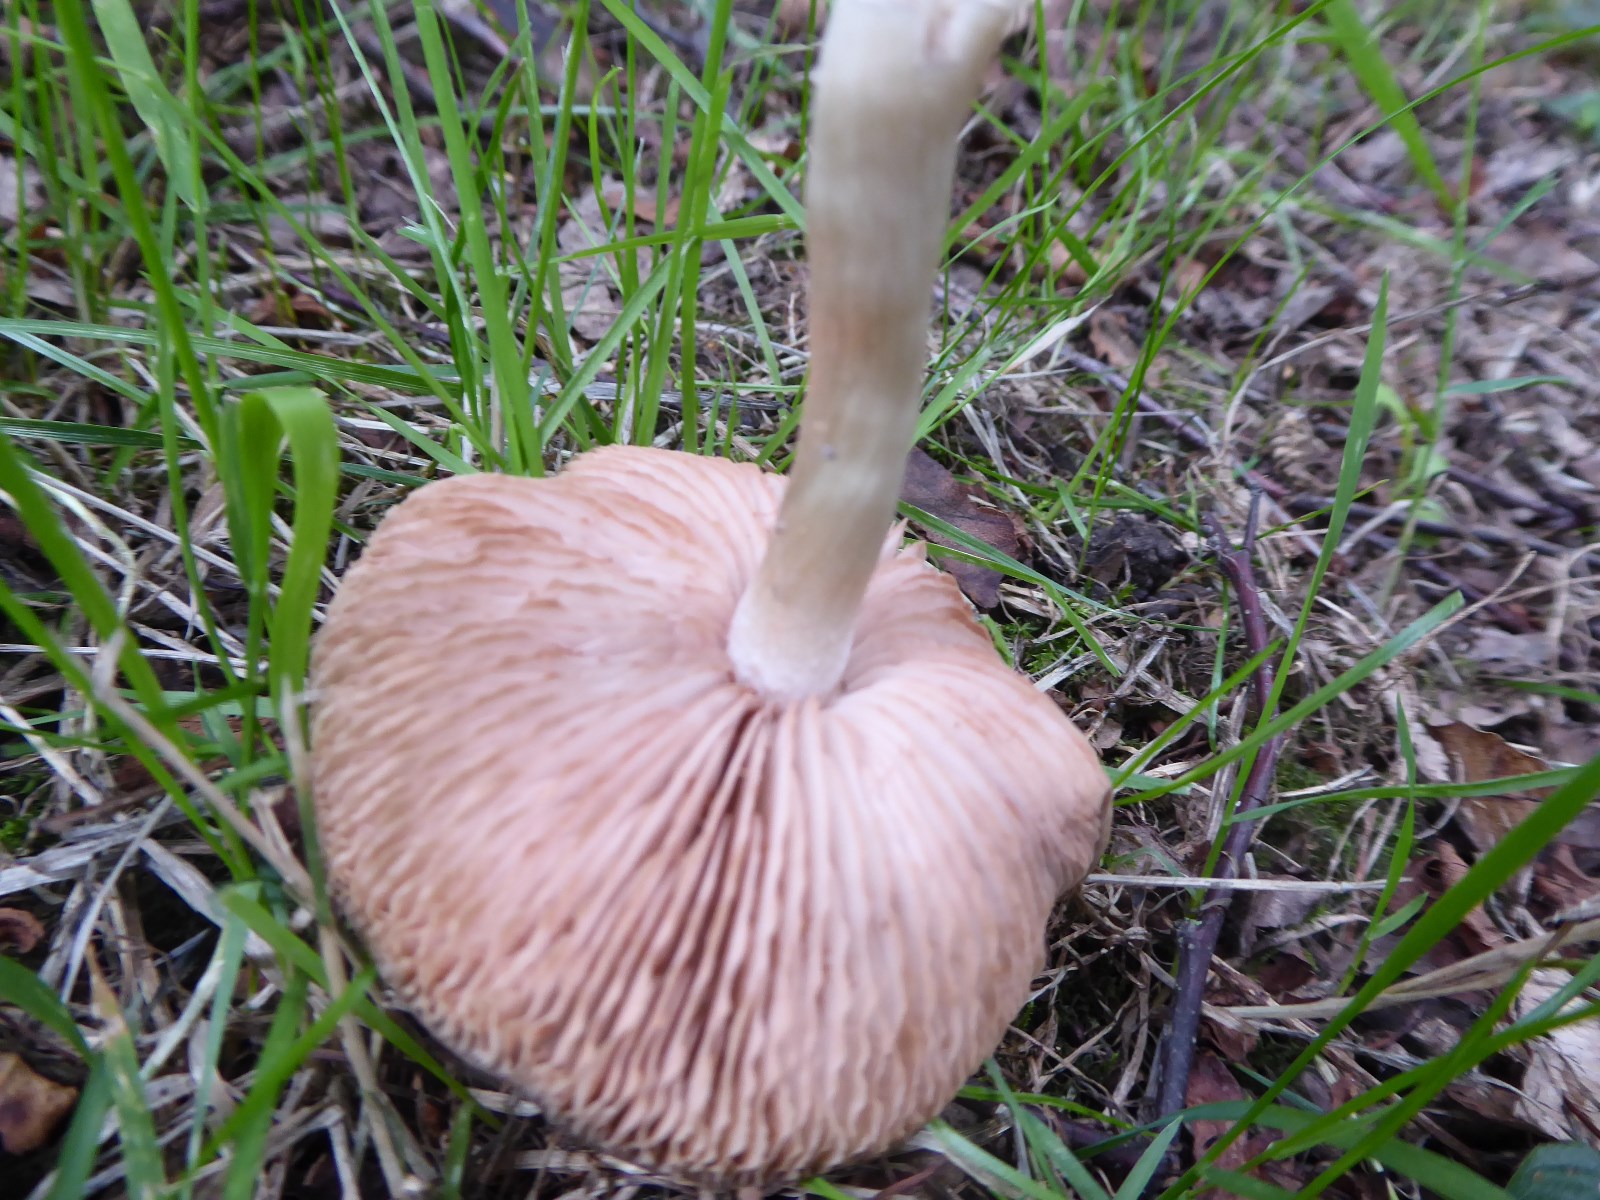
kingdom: Fungi
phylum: Basidiomycota
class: Agaricomycetes
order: Agaricales
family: Entolomataceae
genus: Entoloma
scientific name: Entoloma
